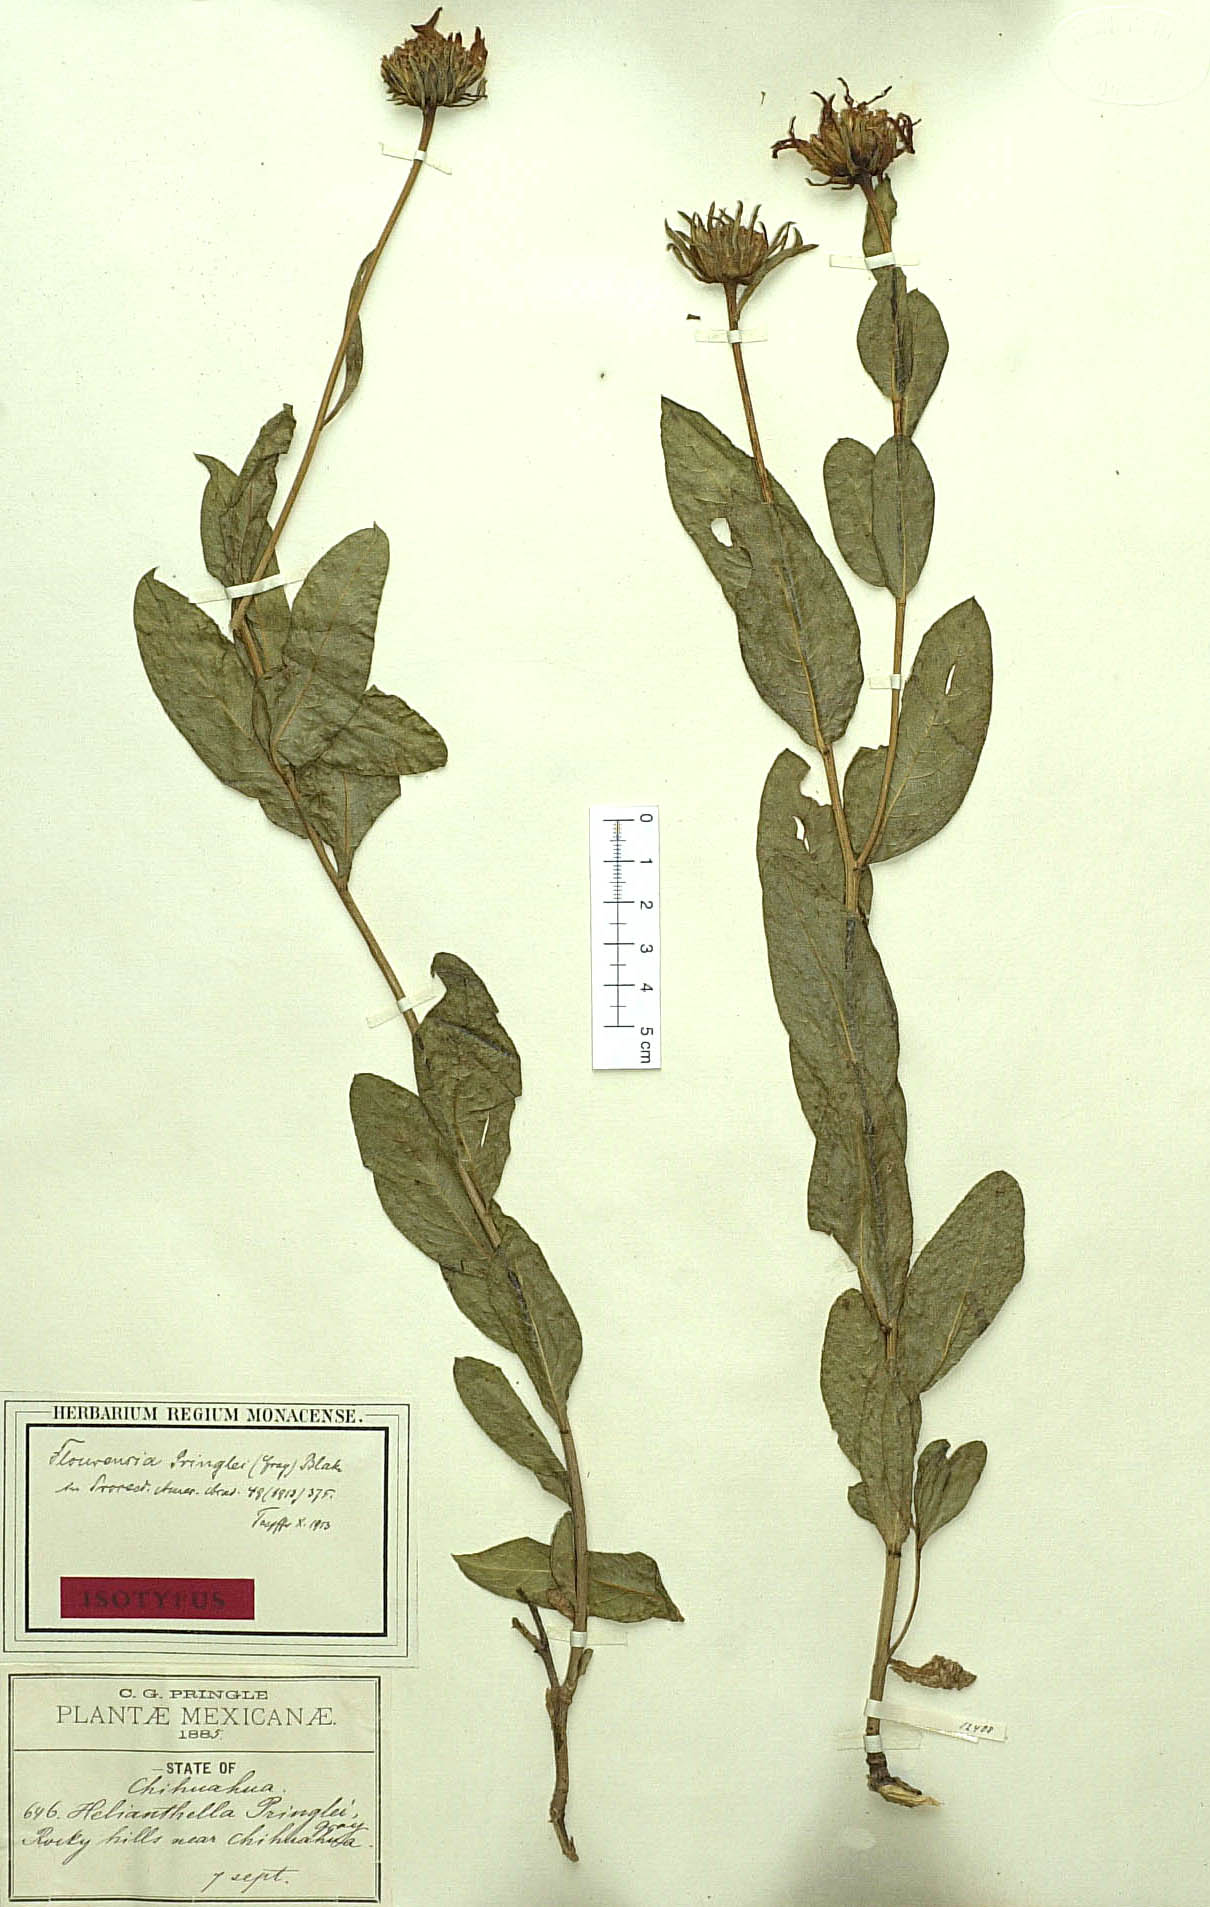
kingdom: Plantae
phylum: Tracheophyta
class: Magnoliopsida
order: Asterales
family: Asteraceae
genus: Flourensia
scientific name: Flourensia pringlei
